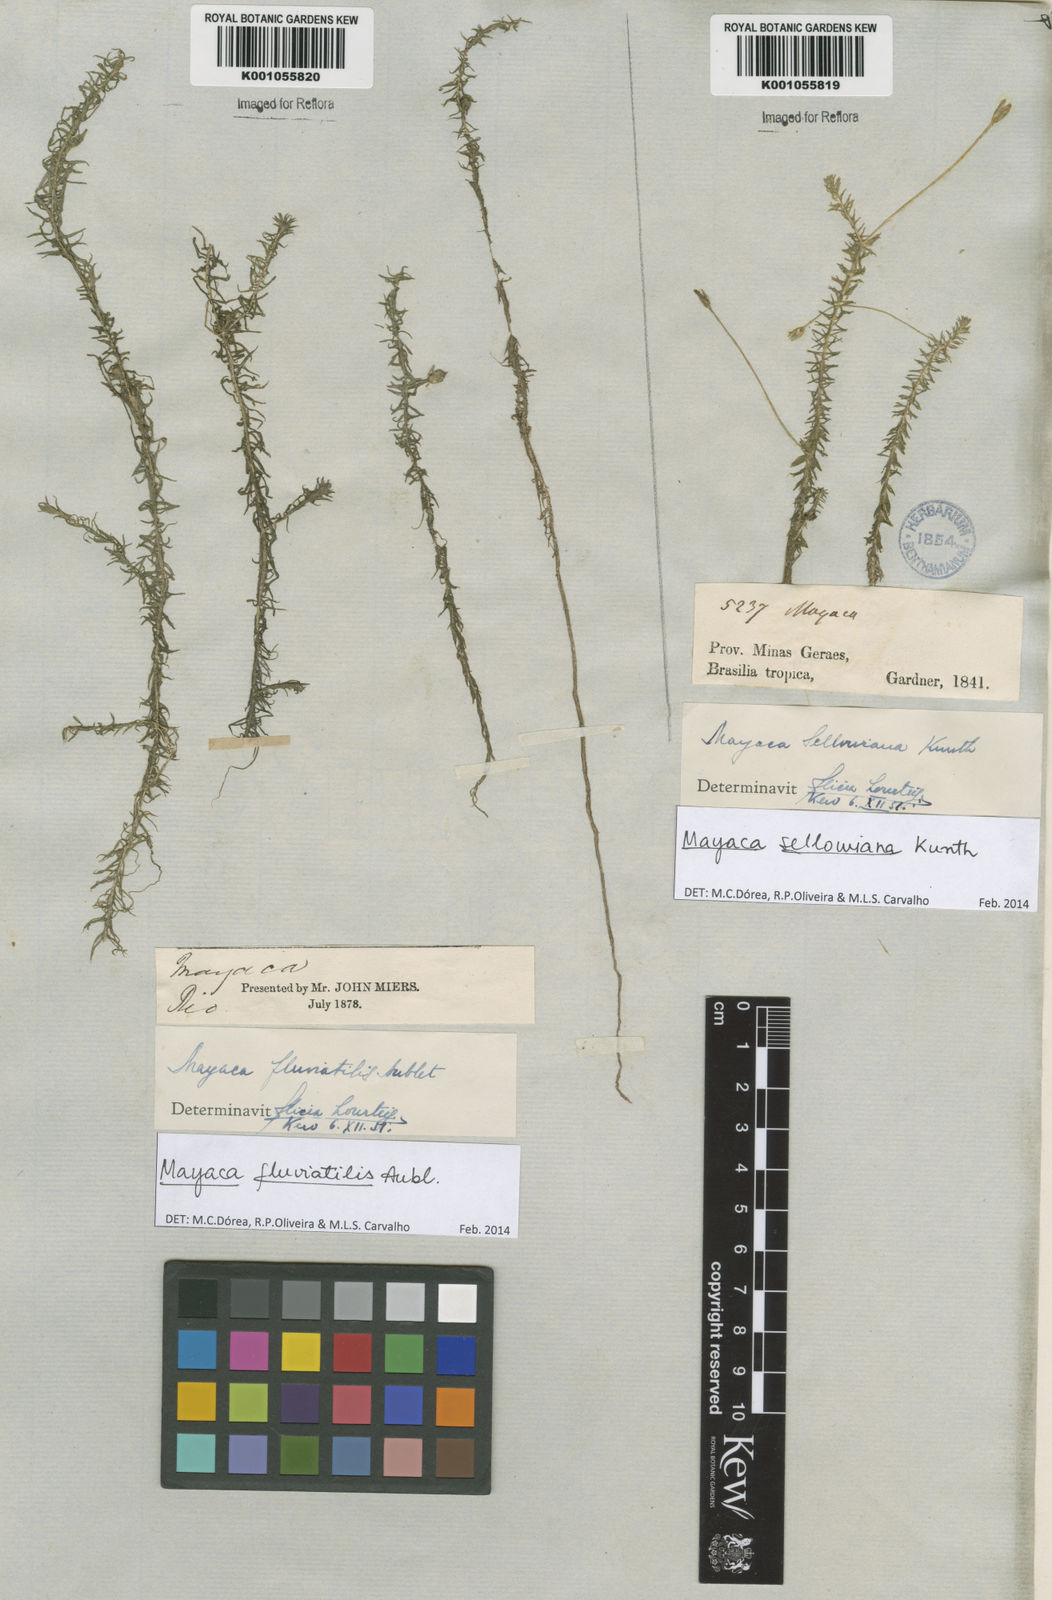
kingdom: Plantae
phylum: Tracheophyta
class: Liliopsida
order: Poales
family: Mayacaceae
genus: Mayaca
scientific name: Mayaca sellowiana
